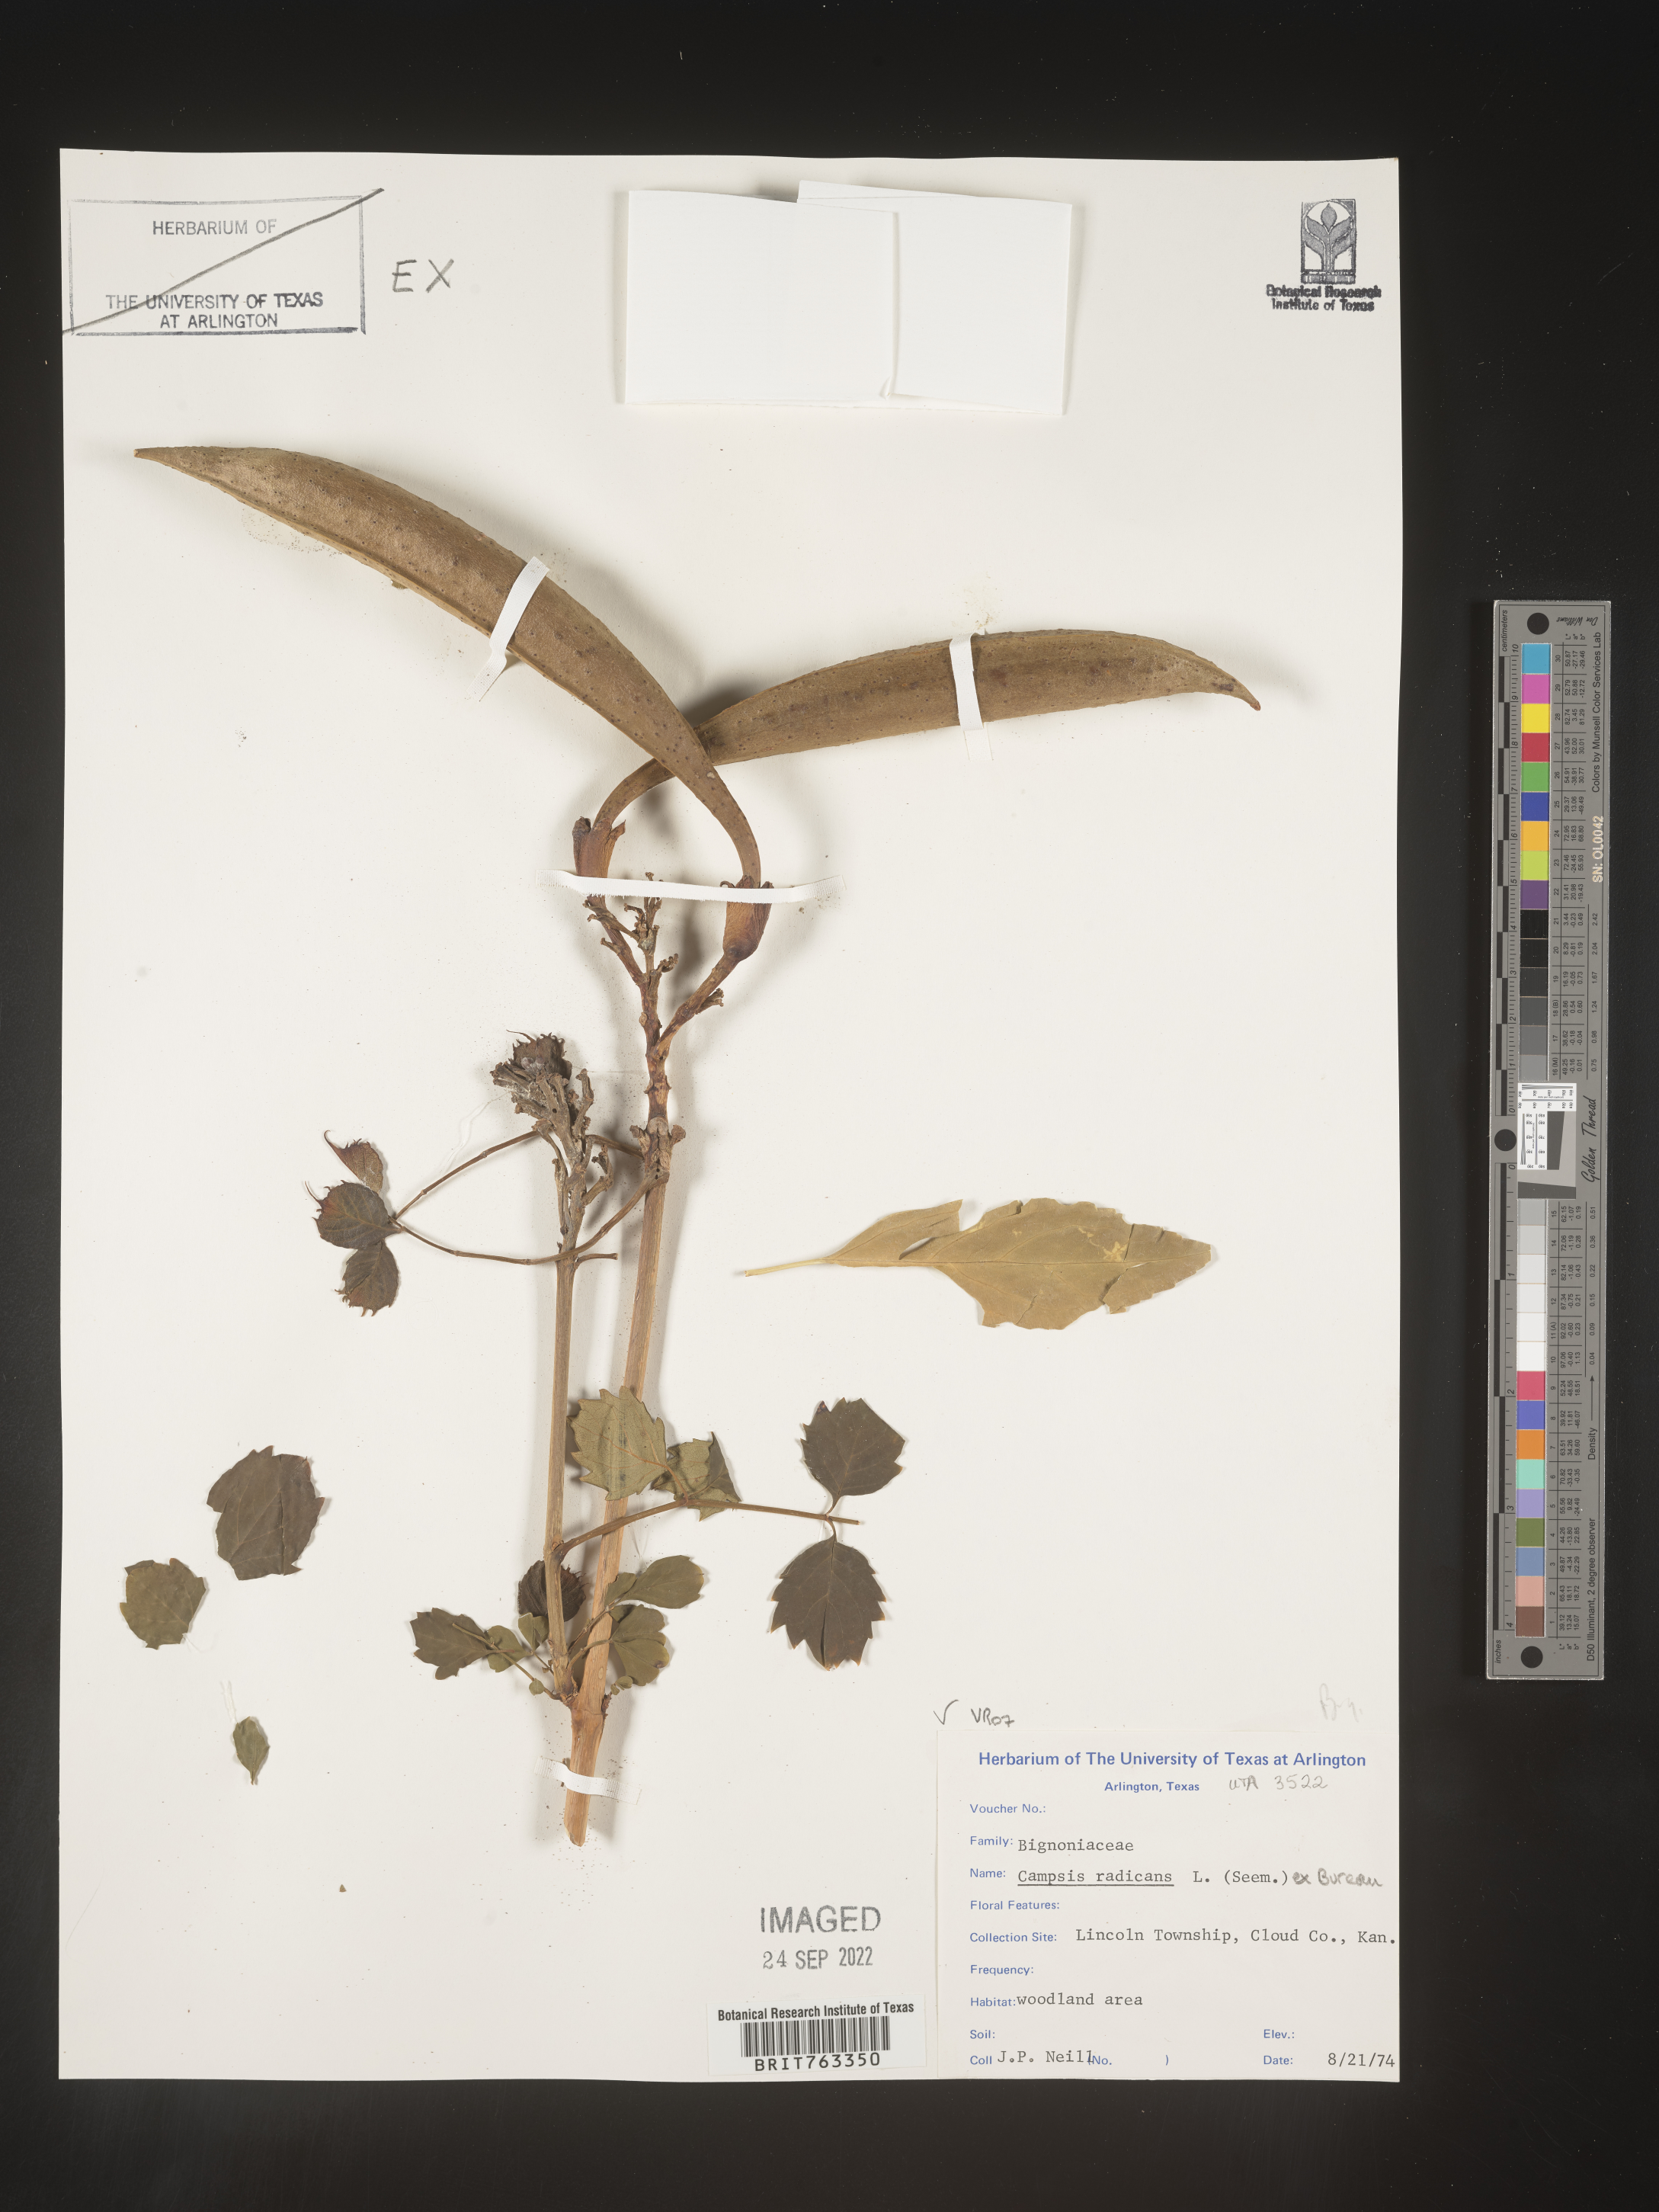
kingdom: Plantae
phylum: Tracheophyta
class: Magnoliopsida
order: Lamiales
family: Bignoniaceae
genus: Campsis
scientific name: Campsis radicans
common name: Trumpet-creeper
